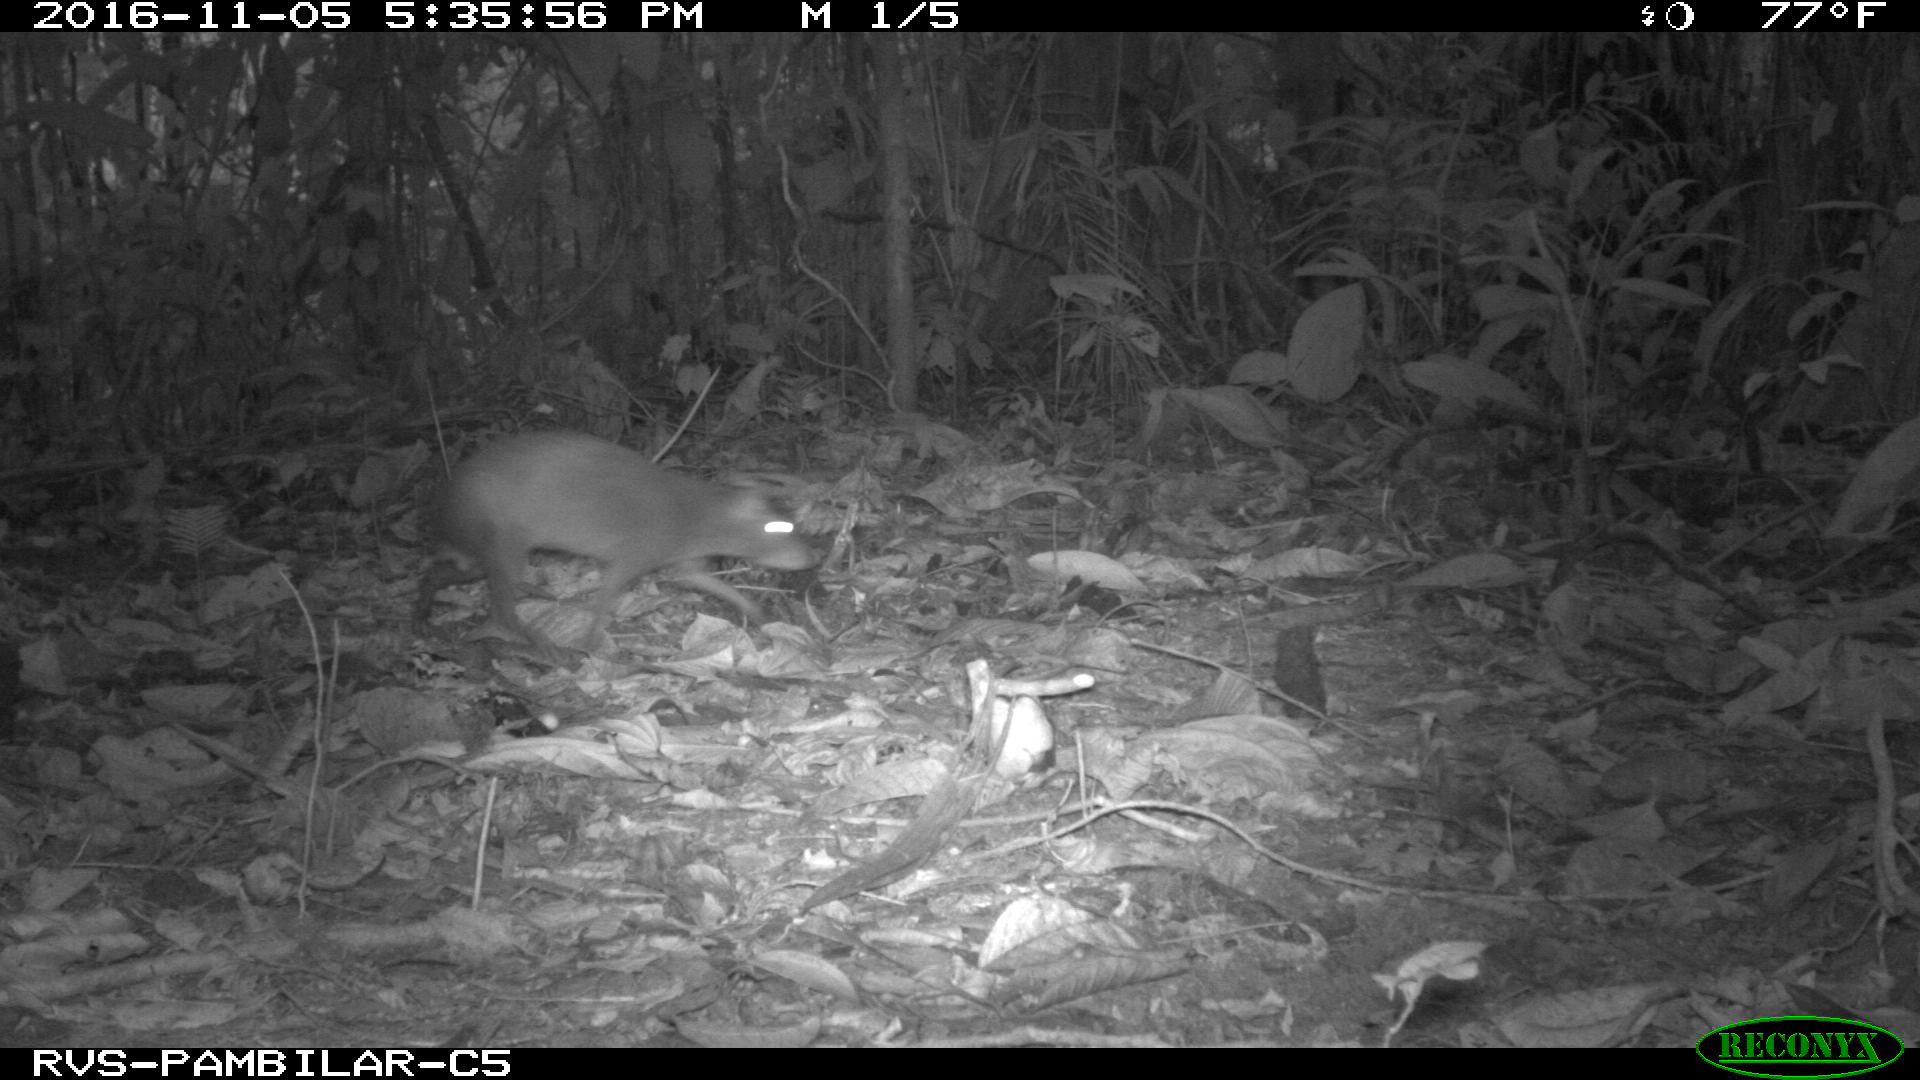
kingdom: Animalia
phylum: Chordata
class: Mammalia
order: Rodentia
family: Dasyproctidae
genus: Dasyprocta
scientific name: Dasyprocta punctata
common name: Central american agouti
